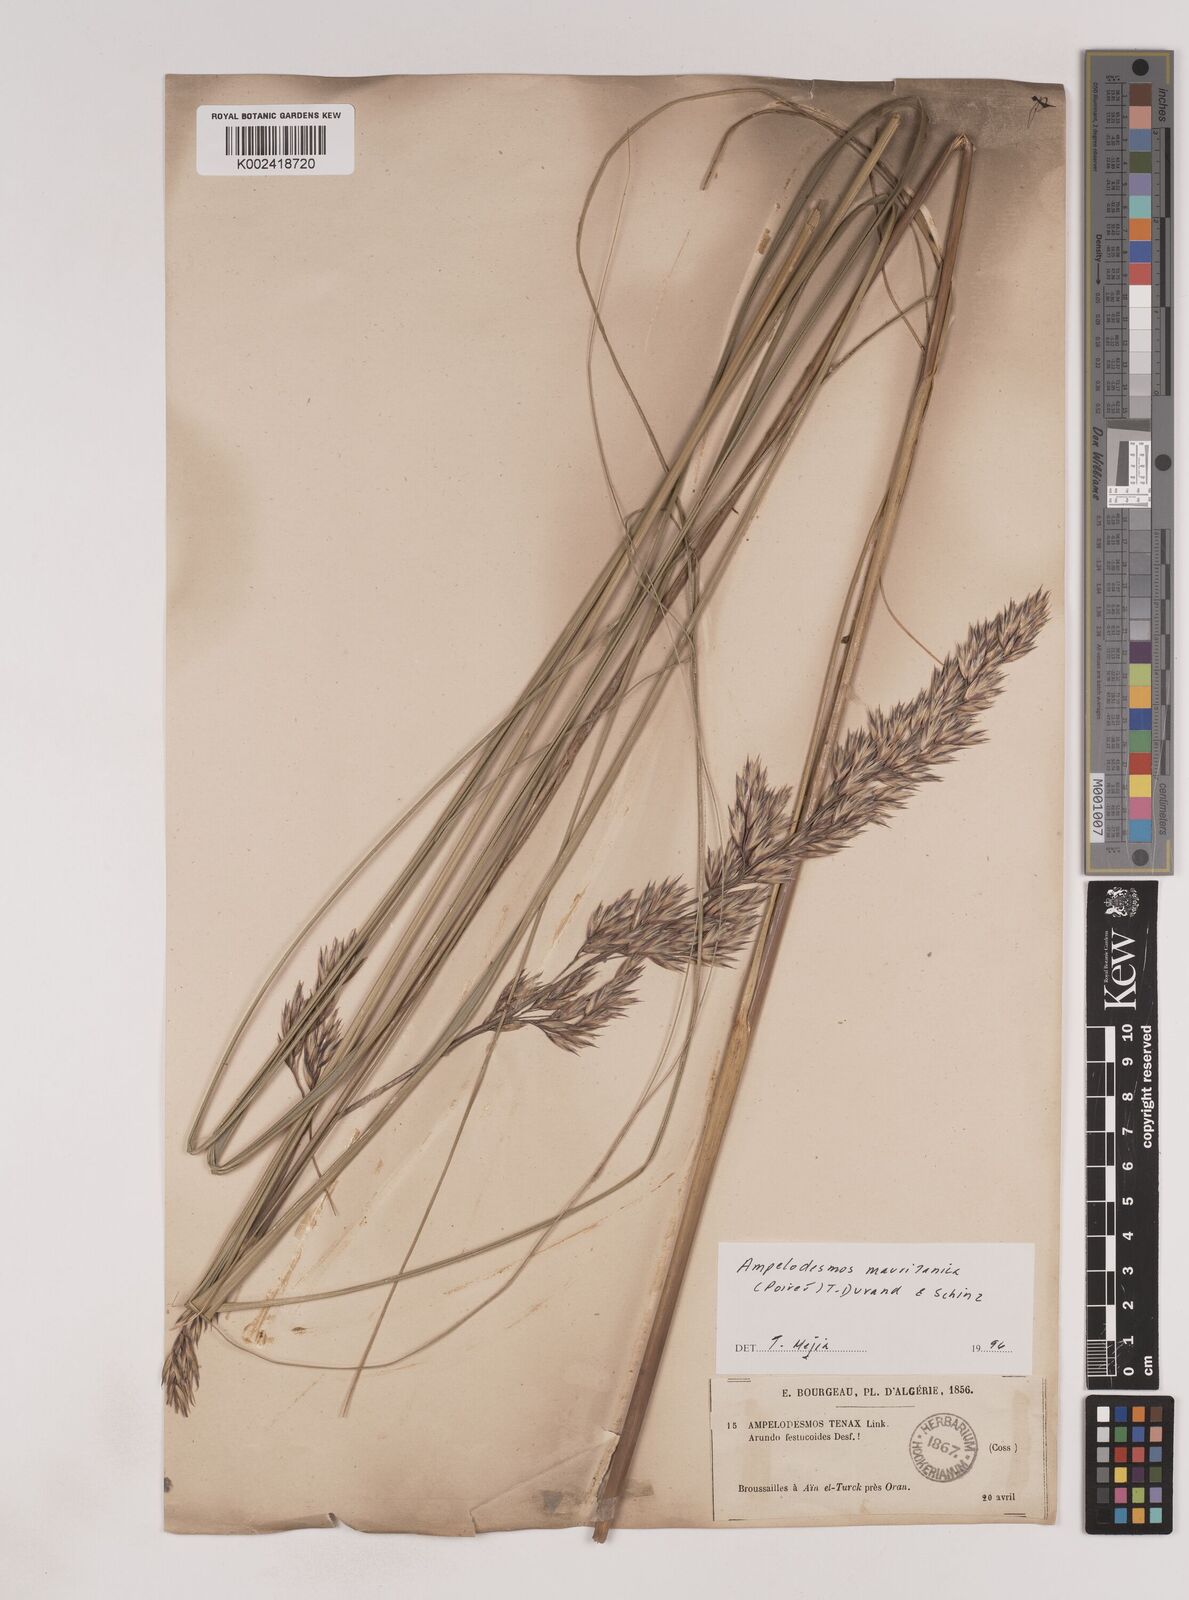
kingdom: Plantae
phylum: Tracheophyta
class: Liliopsida
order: Poales
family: Poaceae
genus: Ampelodesmos
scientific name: Ampelodesmos mauritanicus
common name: Mauritanian grass
